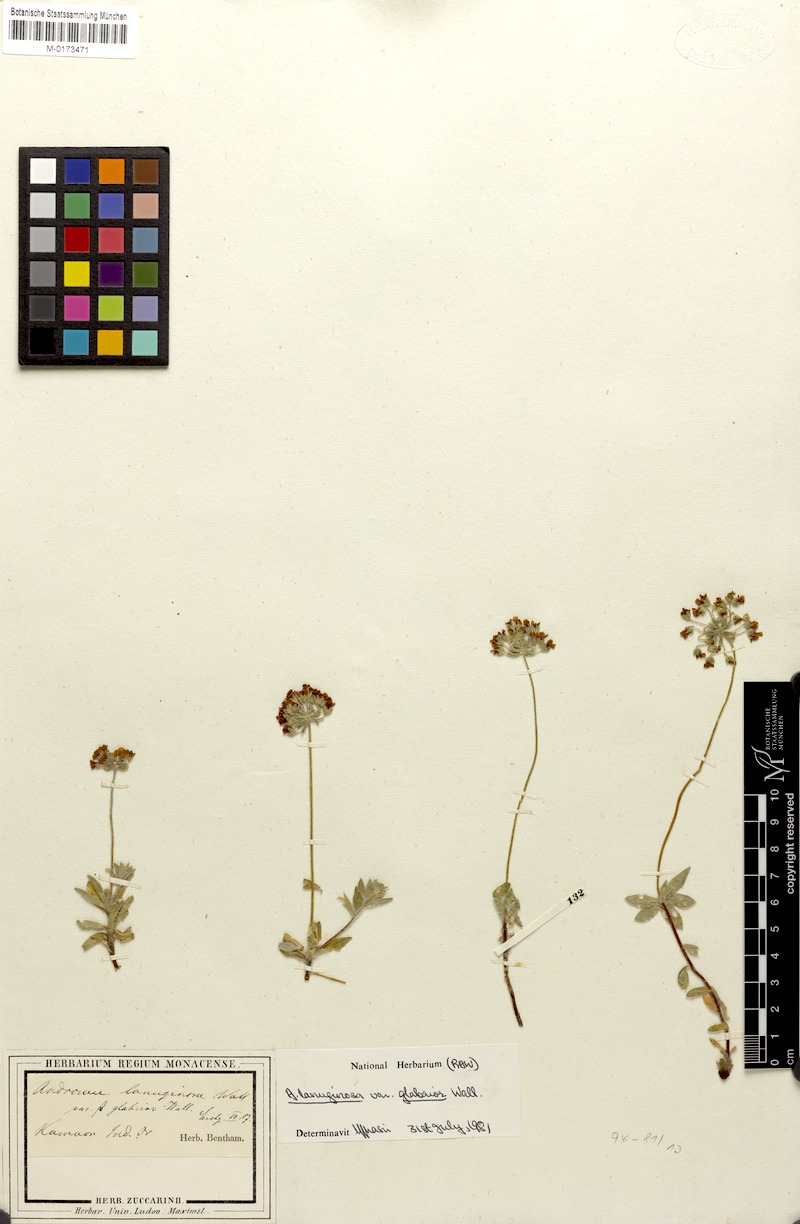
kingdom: Plantae
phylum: Tracheophyta
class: Magnoliopsida
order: Ericales
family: Primulaceae
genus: Androsace
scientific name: Androsace lanuginosa
